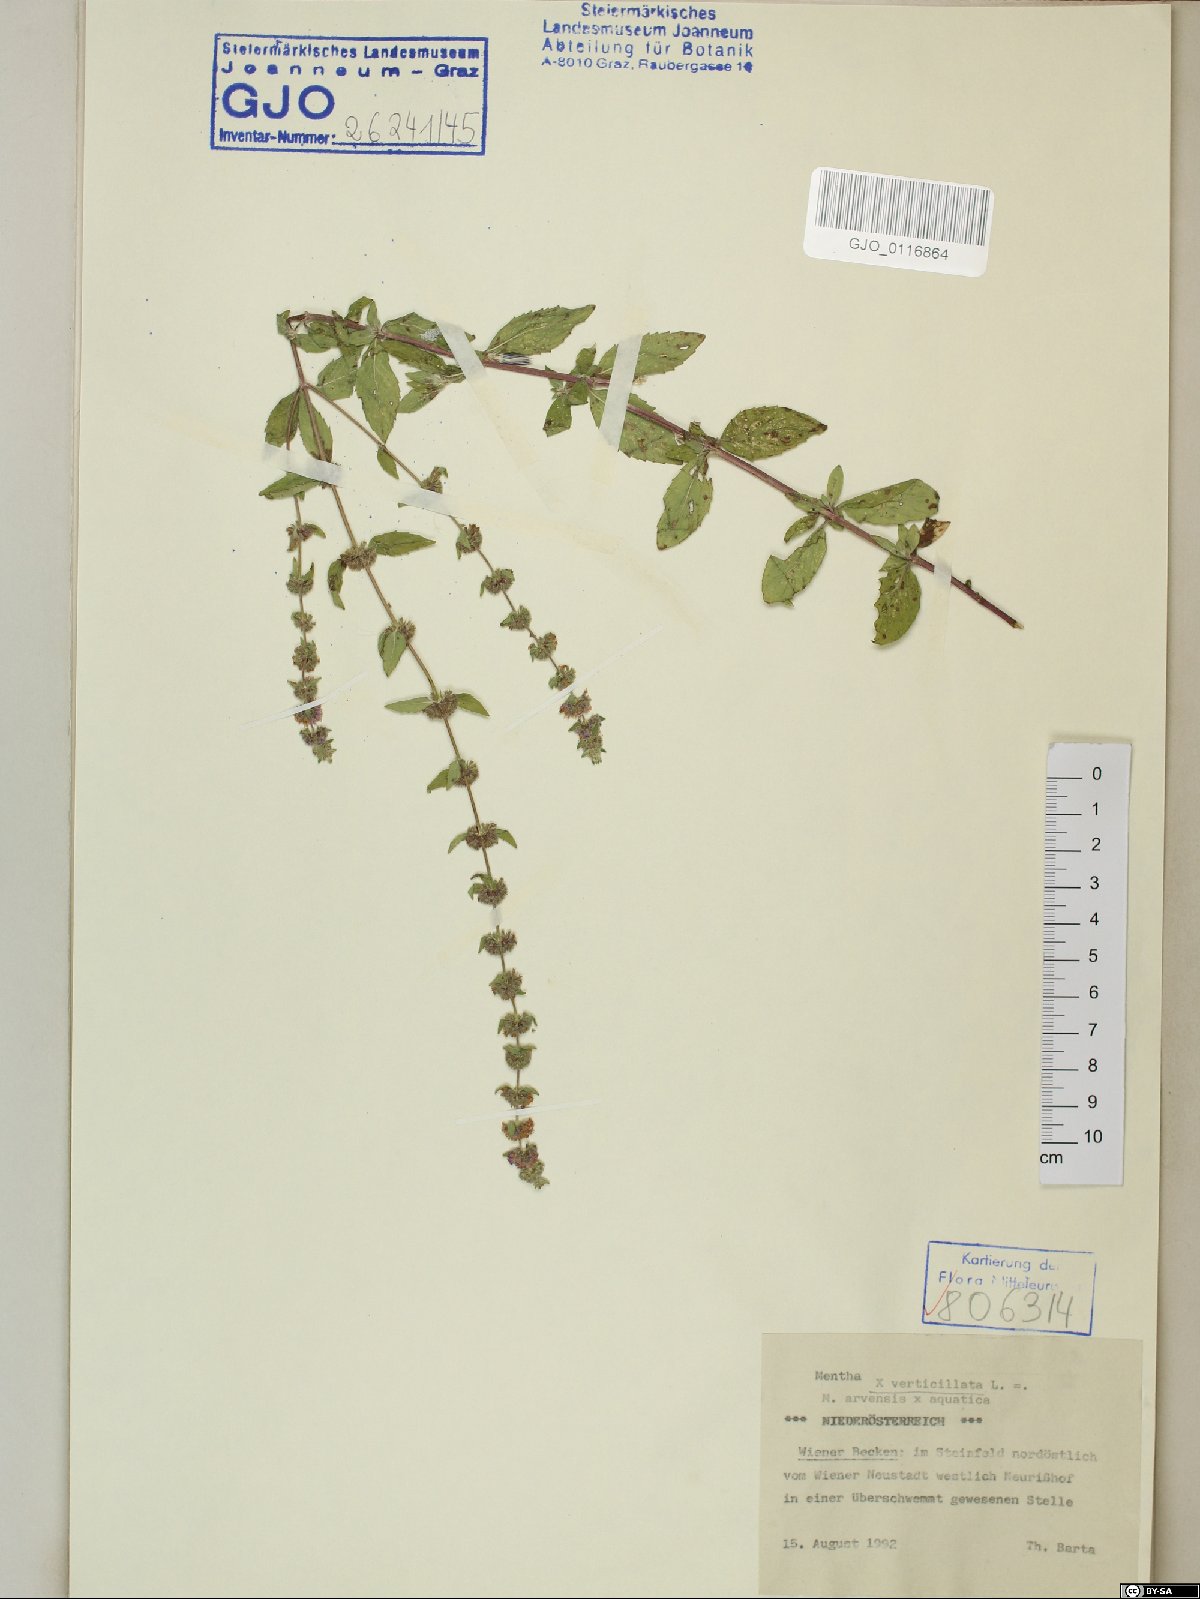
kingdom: Plantae
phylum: Tracheophyta
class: Magnoliopsida
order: Lamiales
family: Lamiaceae
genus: Mentha
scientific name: Mentha verticillata
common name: Mint
